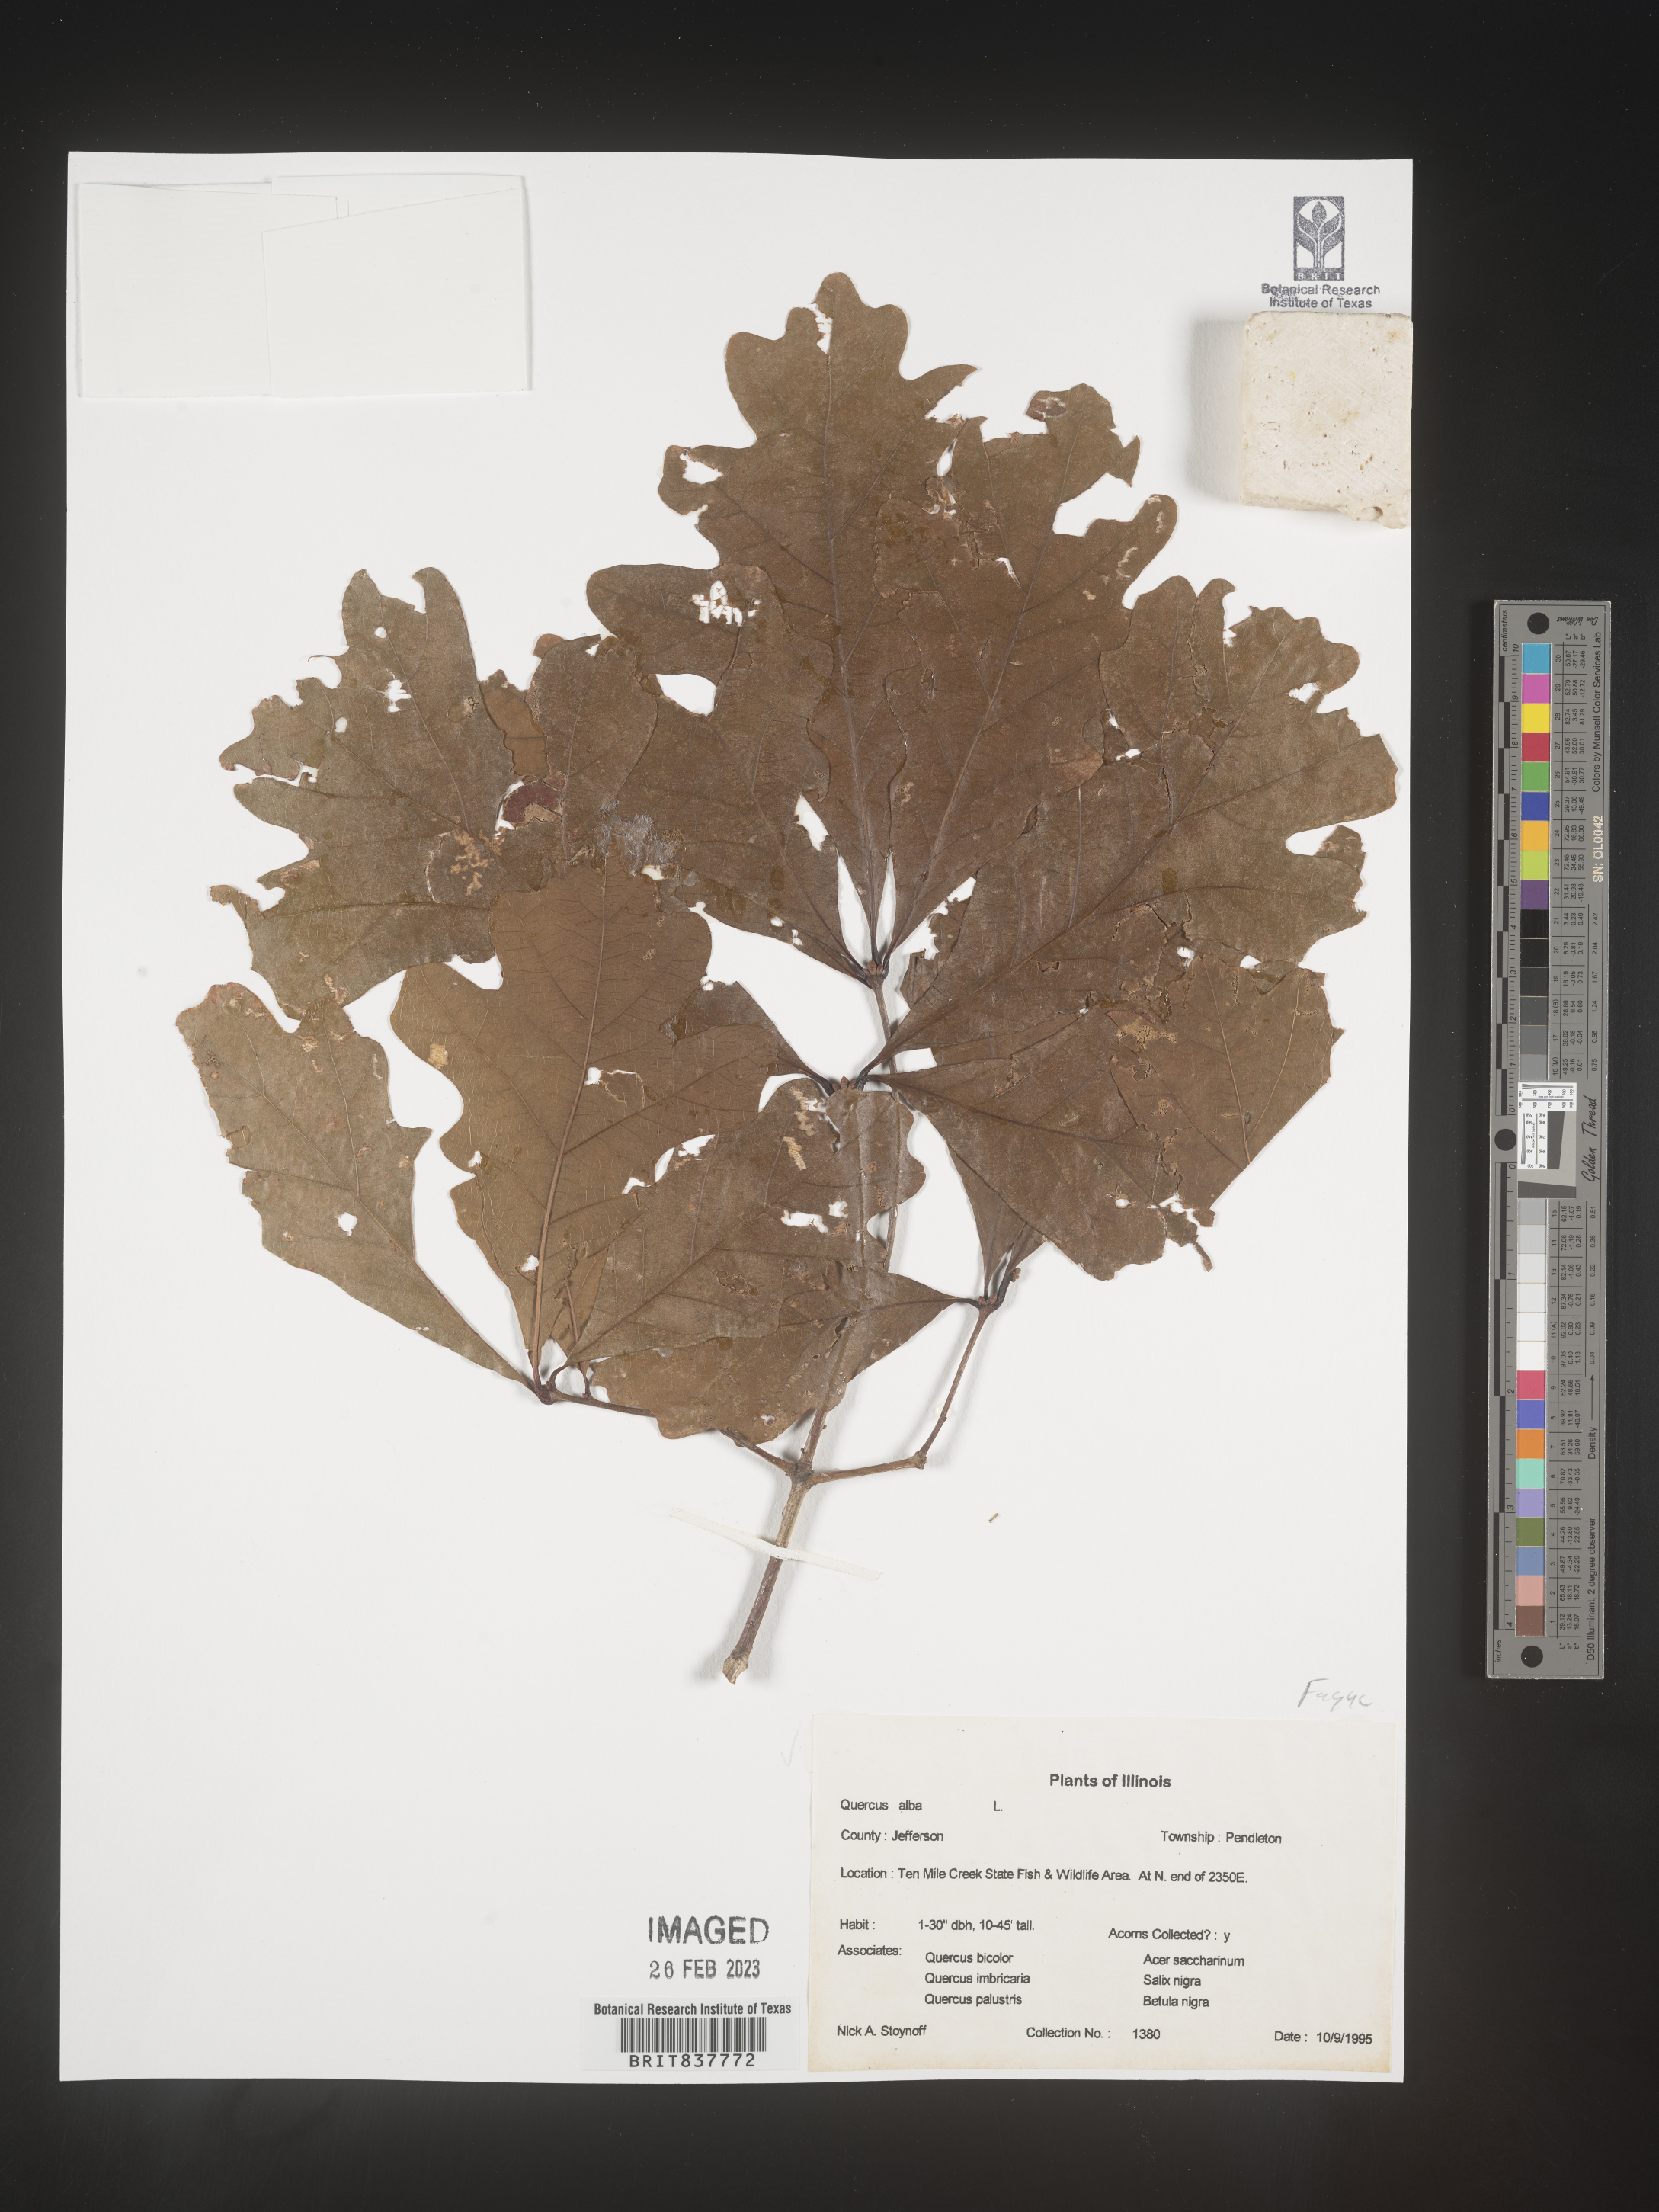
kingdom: Plantae
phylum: Tracheophyta
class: Magnoliopsida
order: Fagales
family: Fagaceae
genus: Quercus
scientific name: Quercus alba
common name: White oak
